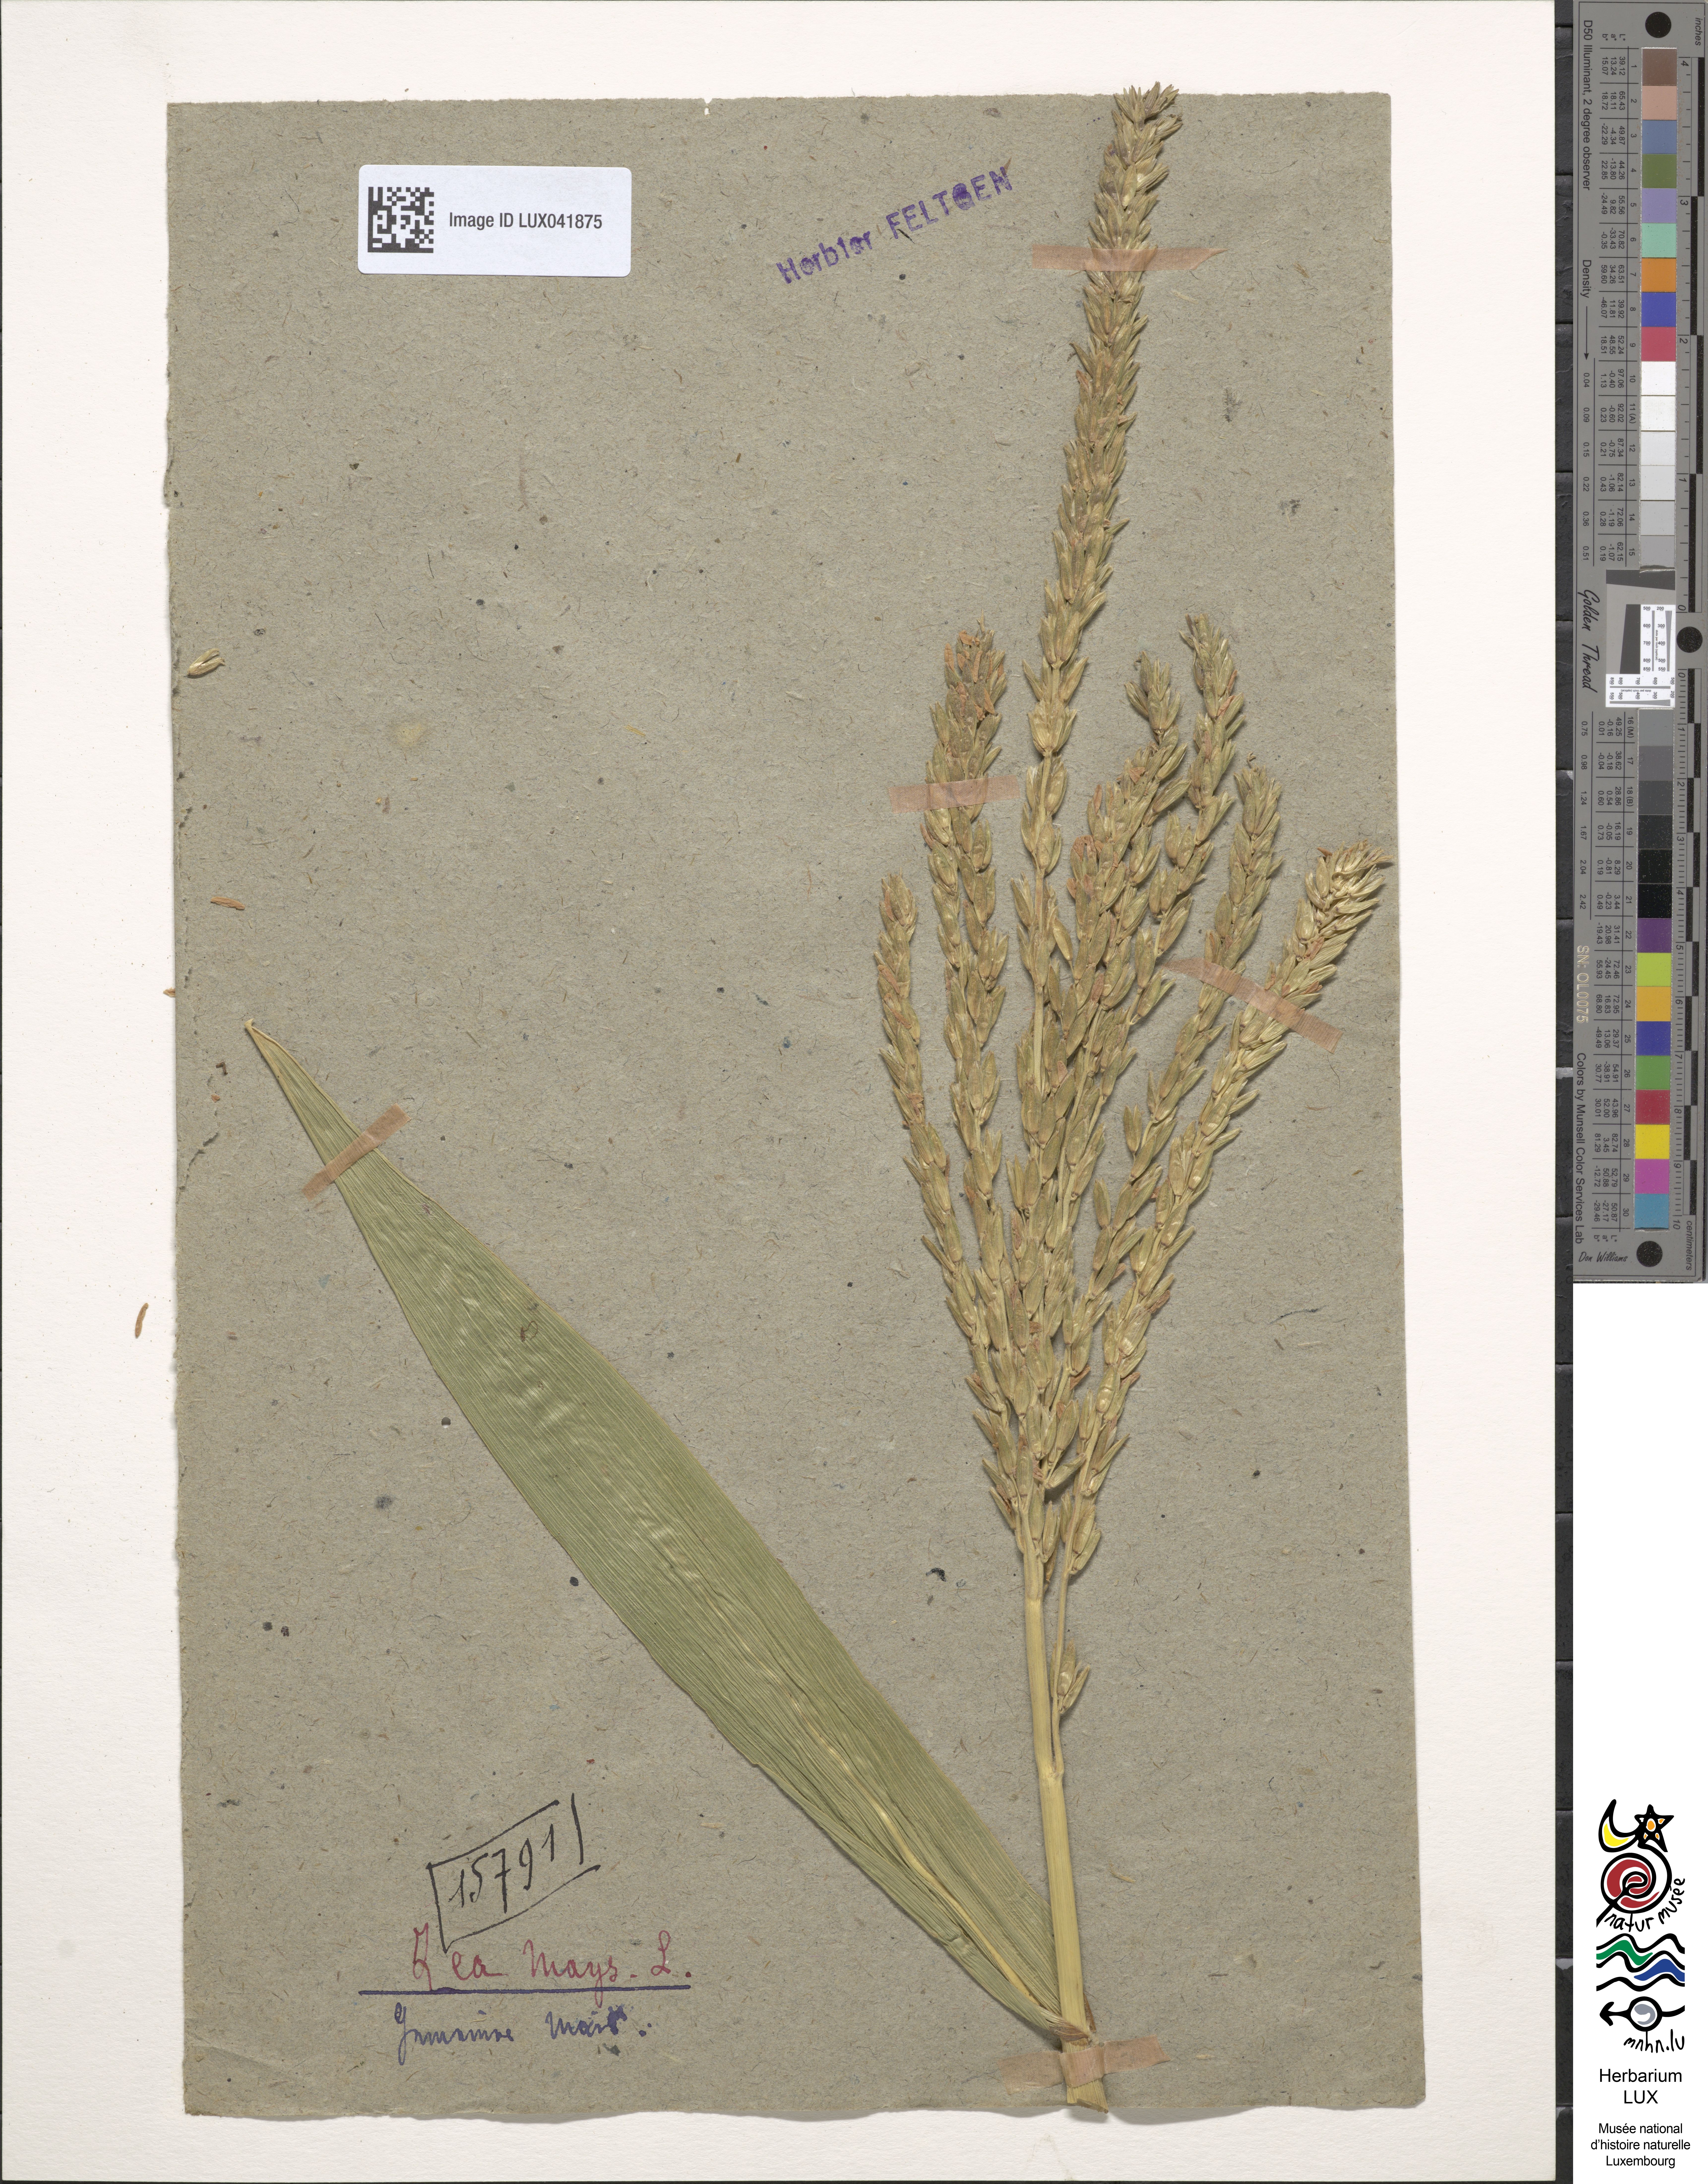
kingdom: Plantae
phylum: Tracheophyta
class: Liliopsida
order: Poales
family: Poaceae
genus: Zea
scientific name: Zea mays
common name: Maize
